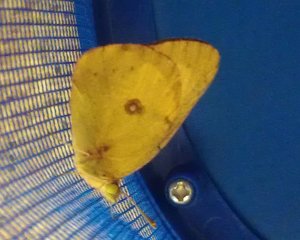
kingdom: Animalia
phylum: Arthropoda
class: Insecta
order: Lepidoptera
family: Pieridae
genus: Colias
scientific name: Colias philodice
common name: Clouded Sulphur
